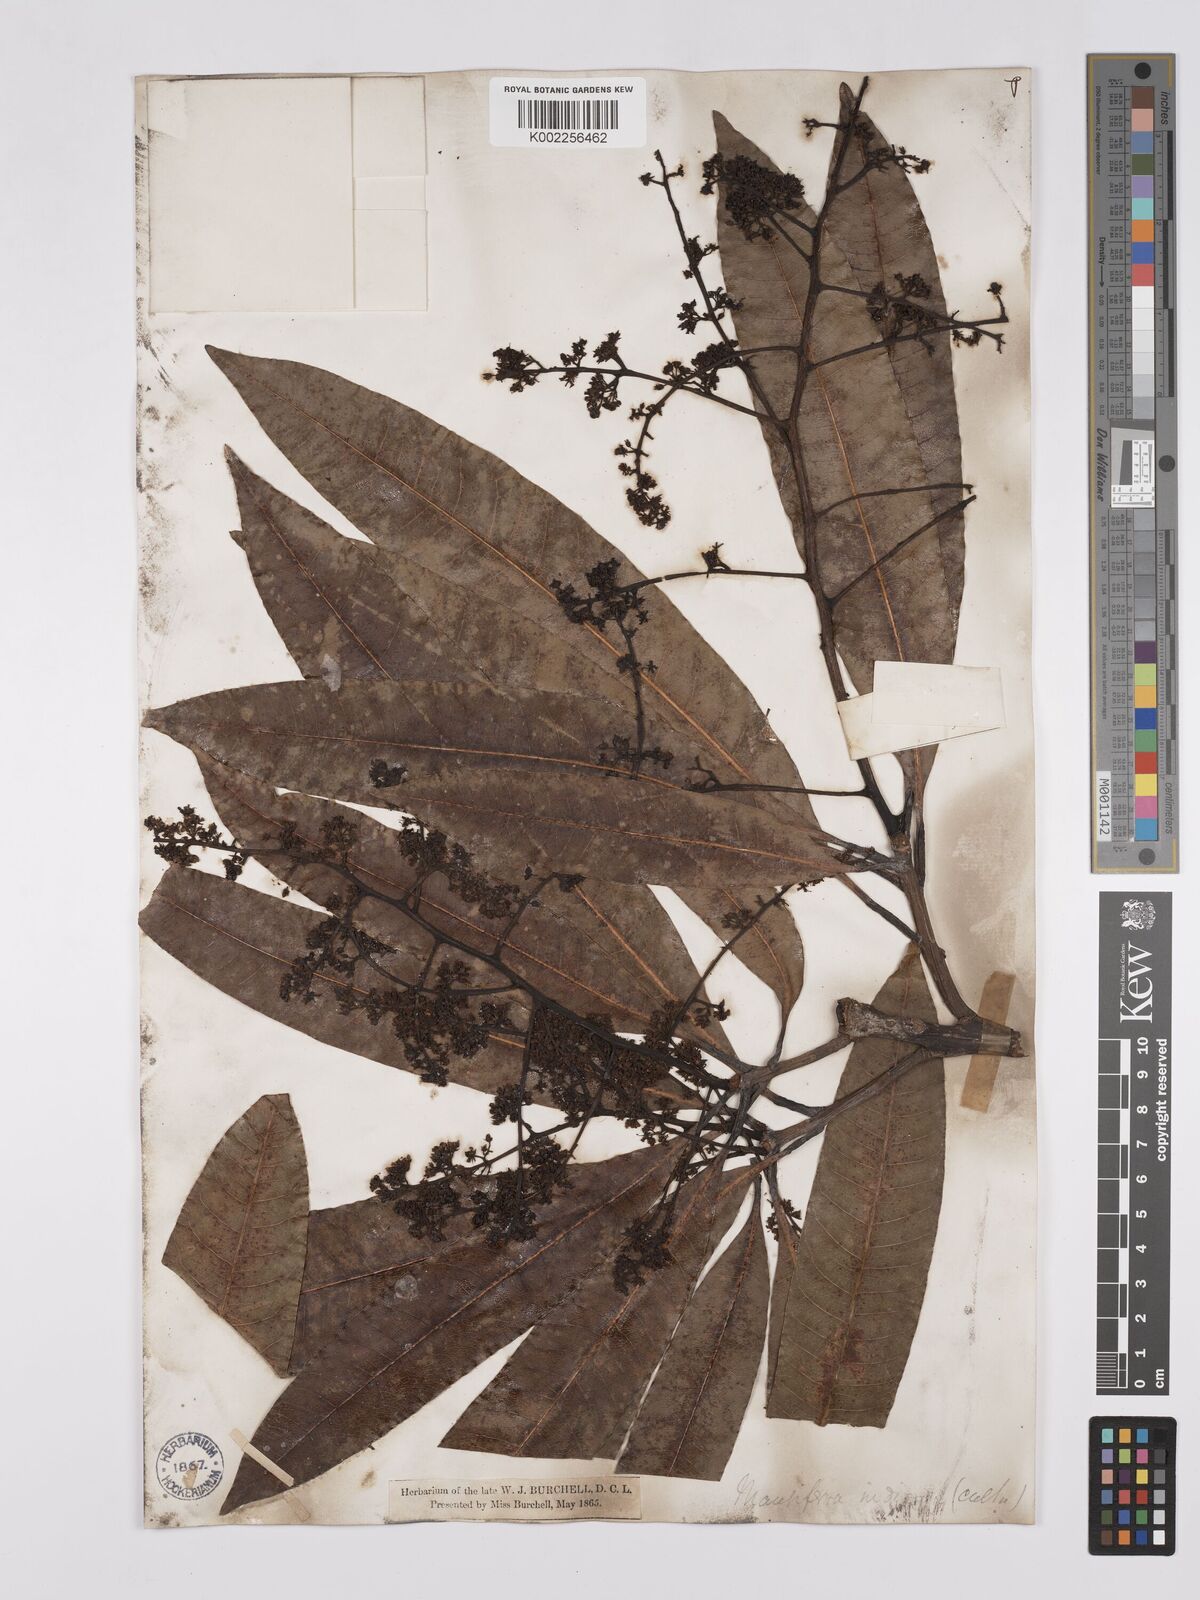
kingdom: Plantae
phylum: Tracheophyta
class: Magnoliopsida
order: Sapindales
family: Anacardiaceae
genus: Mangifera
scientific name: Mangifera indica
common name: Mango
